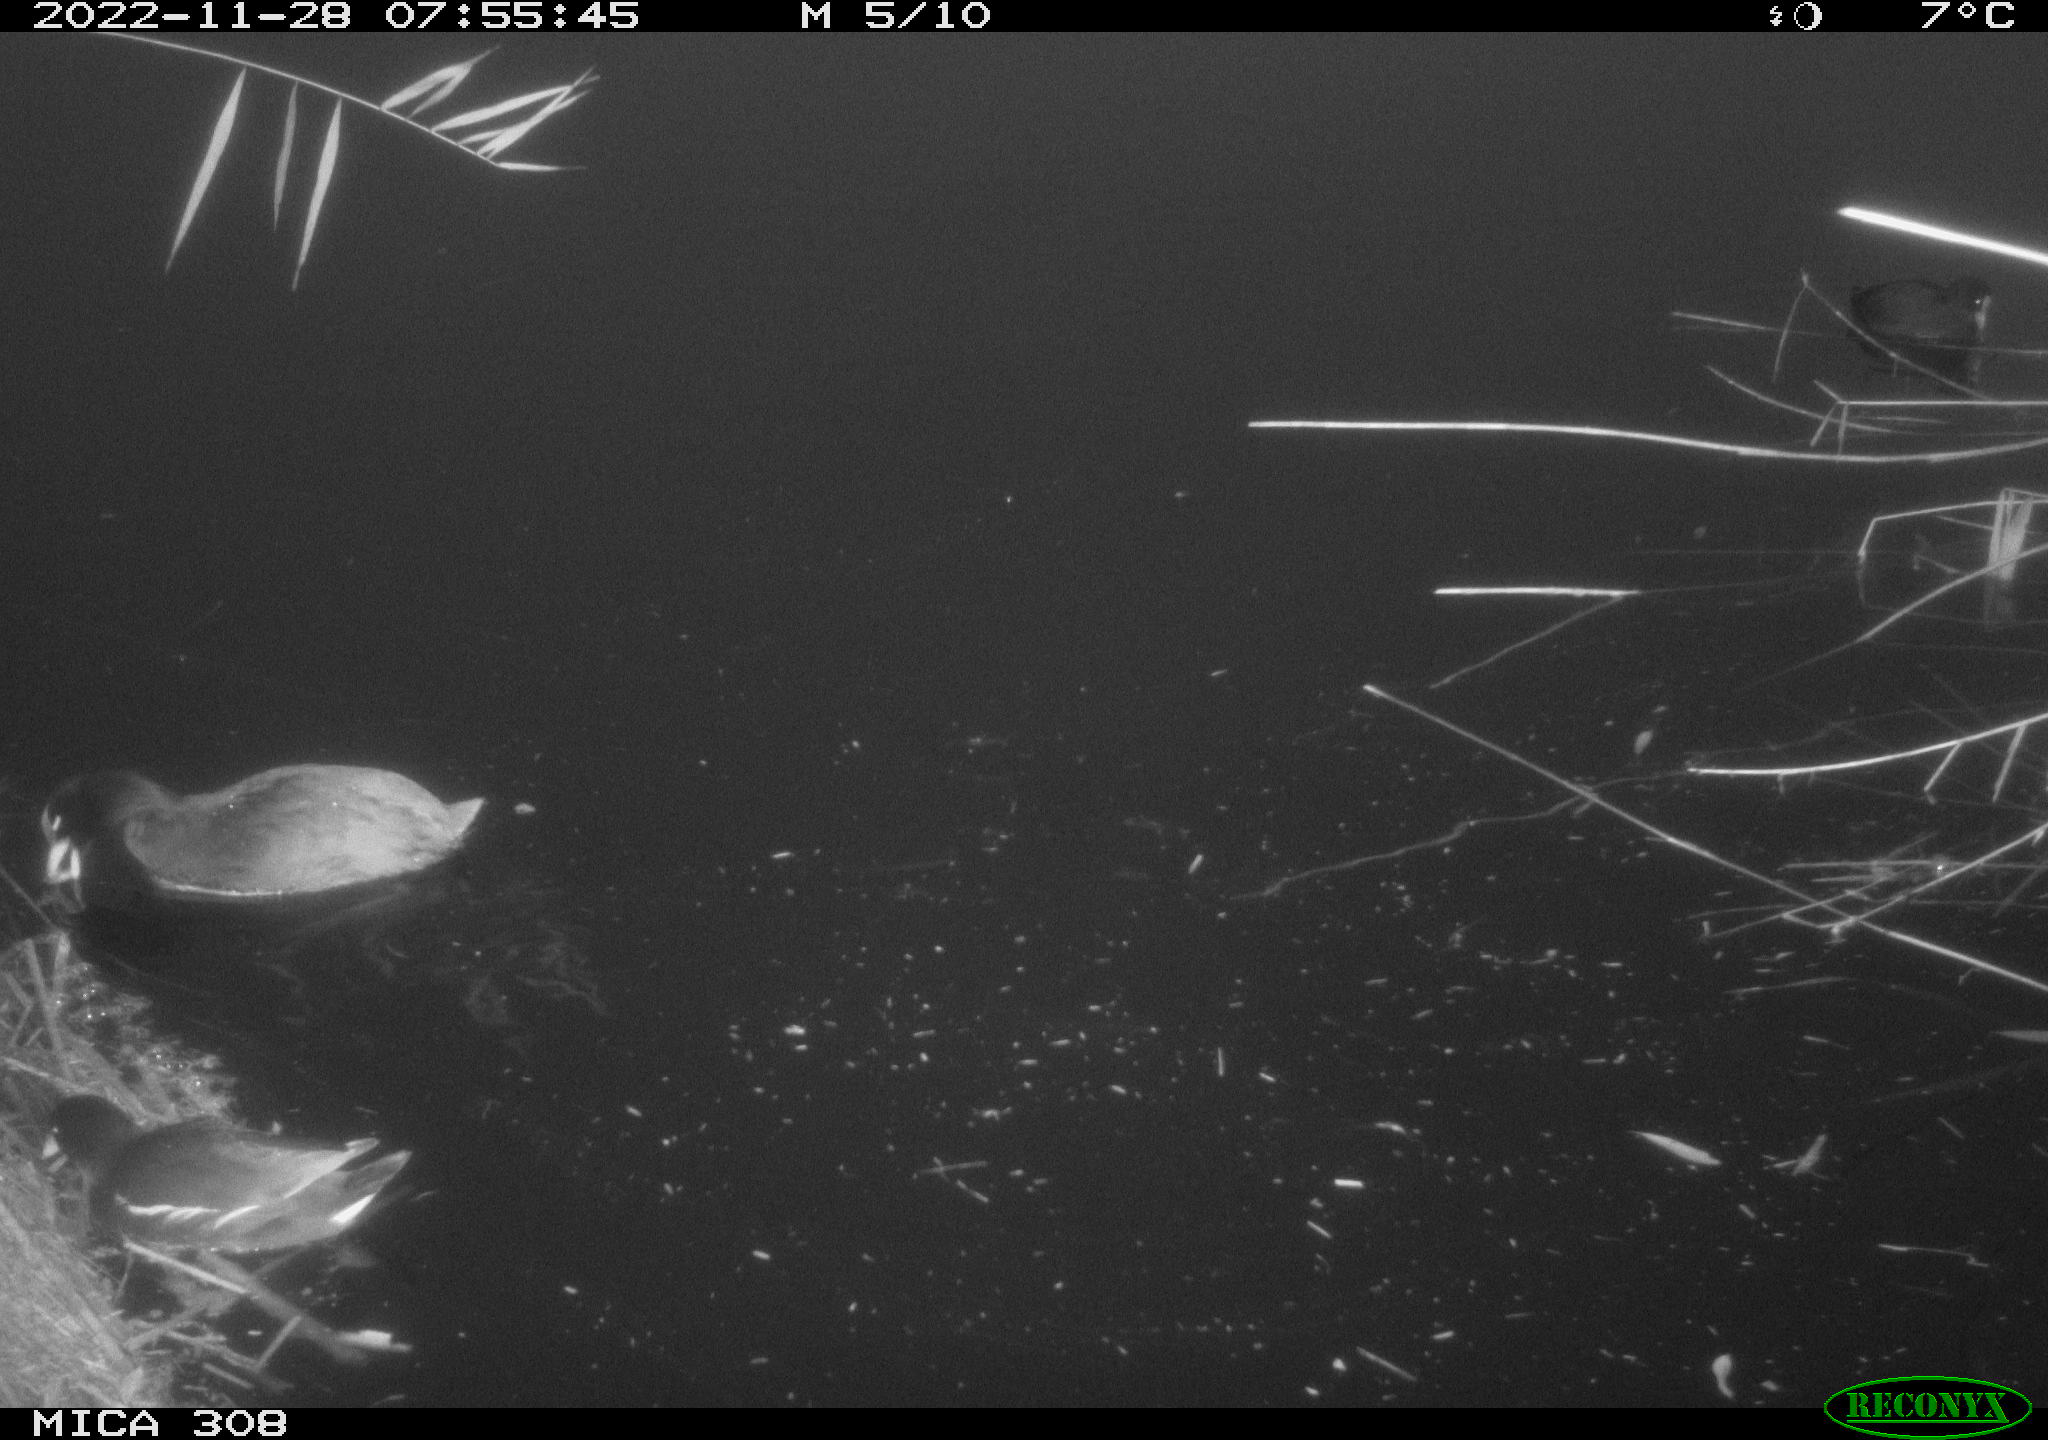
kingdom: Animalia
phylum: Chordata
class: Aves
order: Gruiformes
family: Rallidae
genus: Fulica
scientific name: Fulica atra
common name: Eurasian coot
